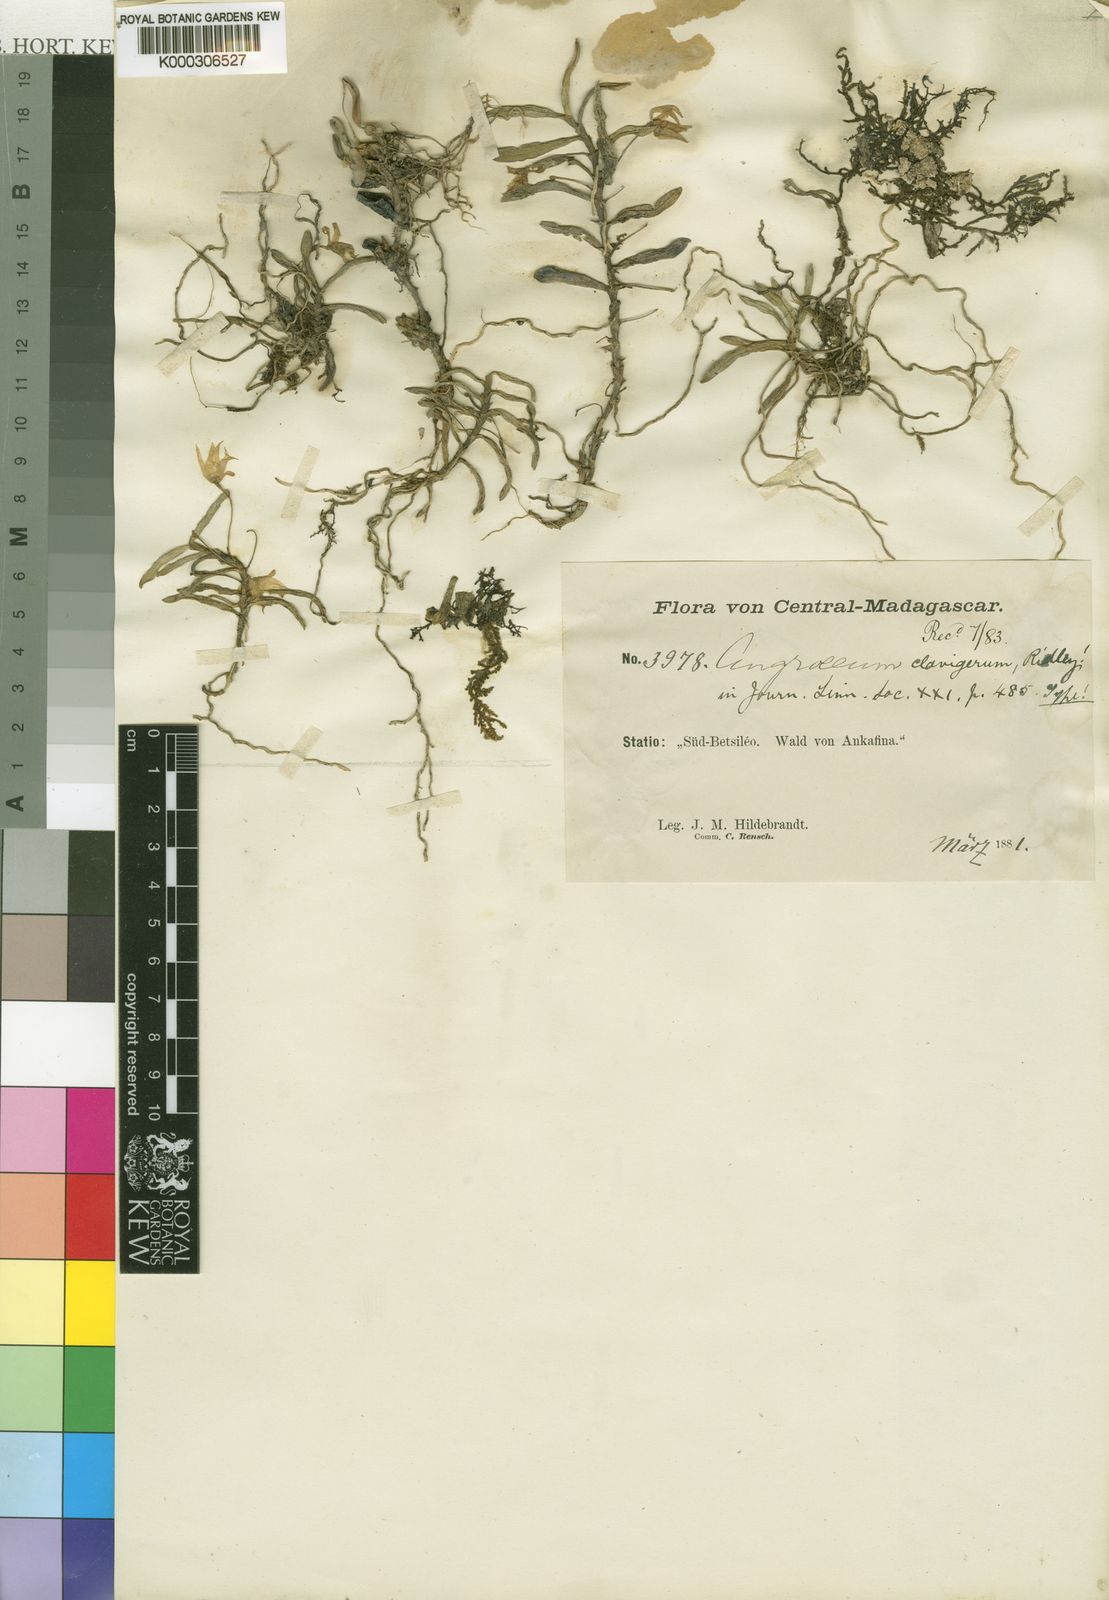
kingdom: Plantae
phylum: Tracheophyta
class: Liliopsida
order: Asparagales
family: Orchidaceae
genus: Angraecum
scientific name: Angraecum clavigerum
